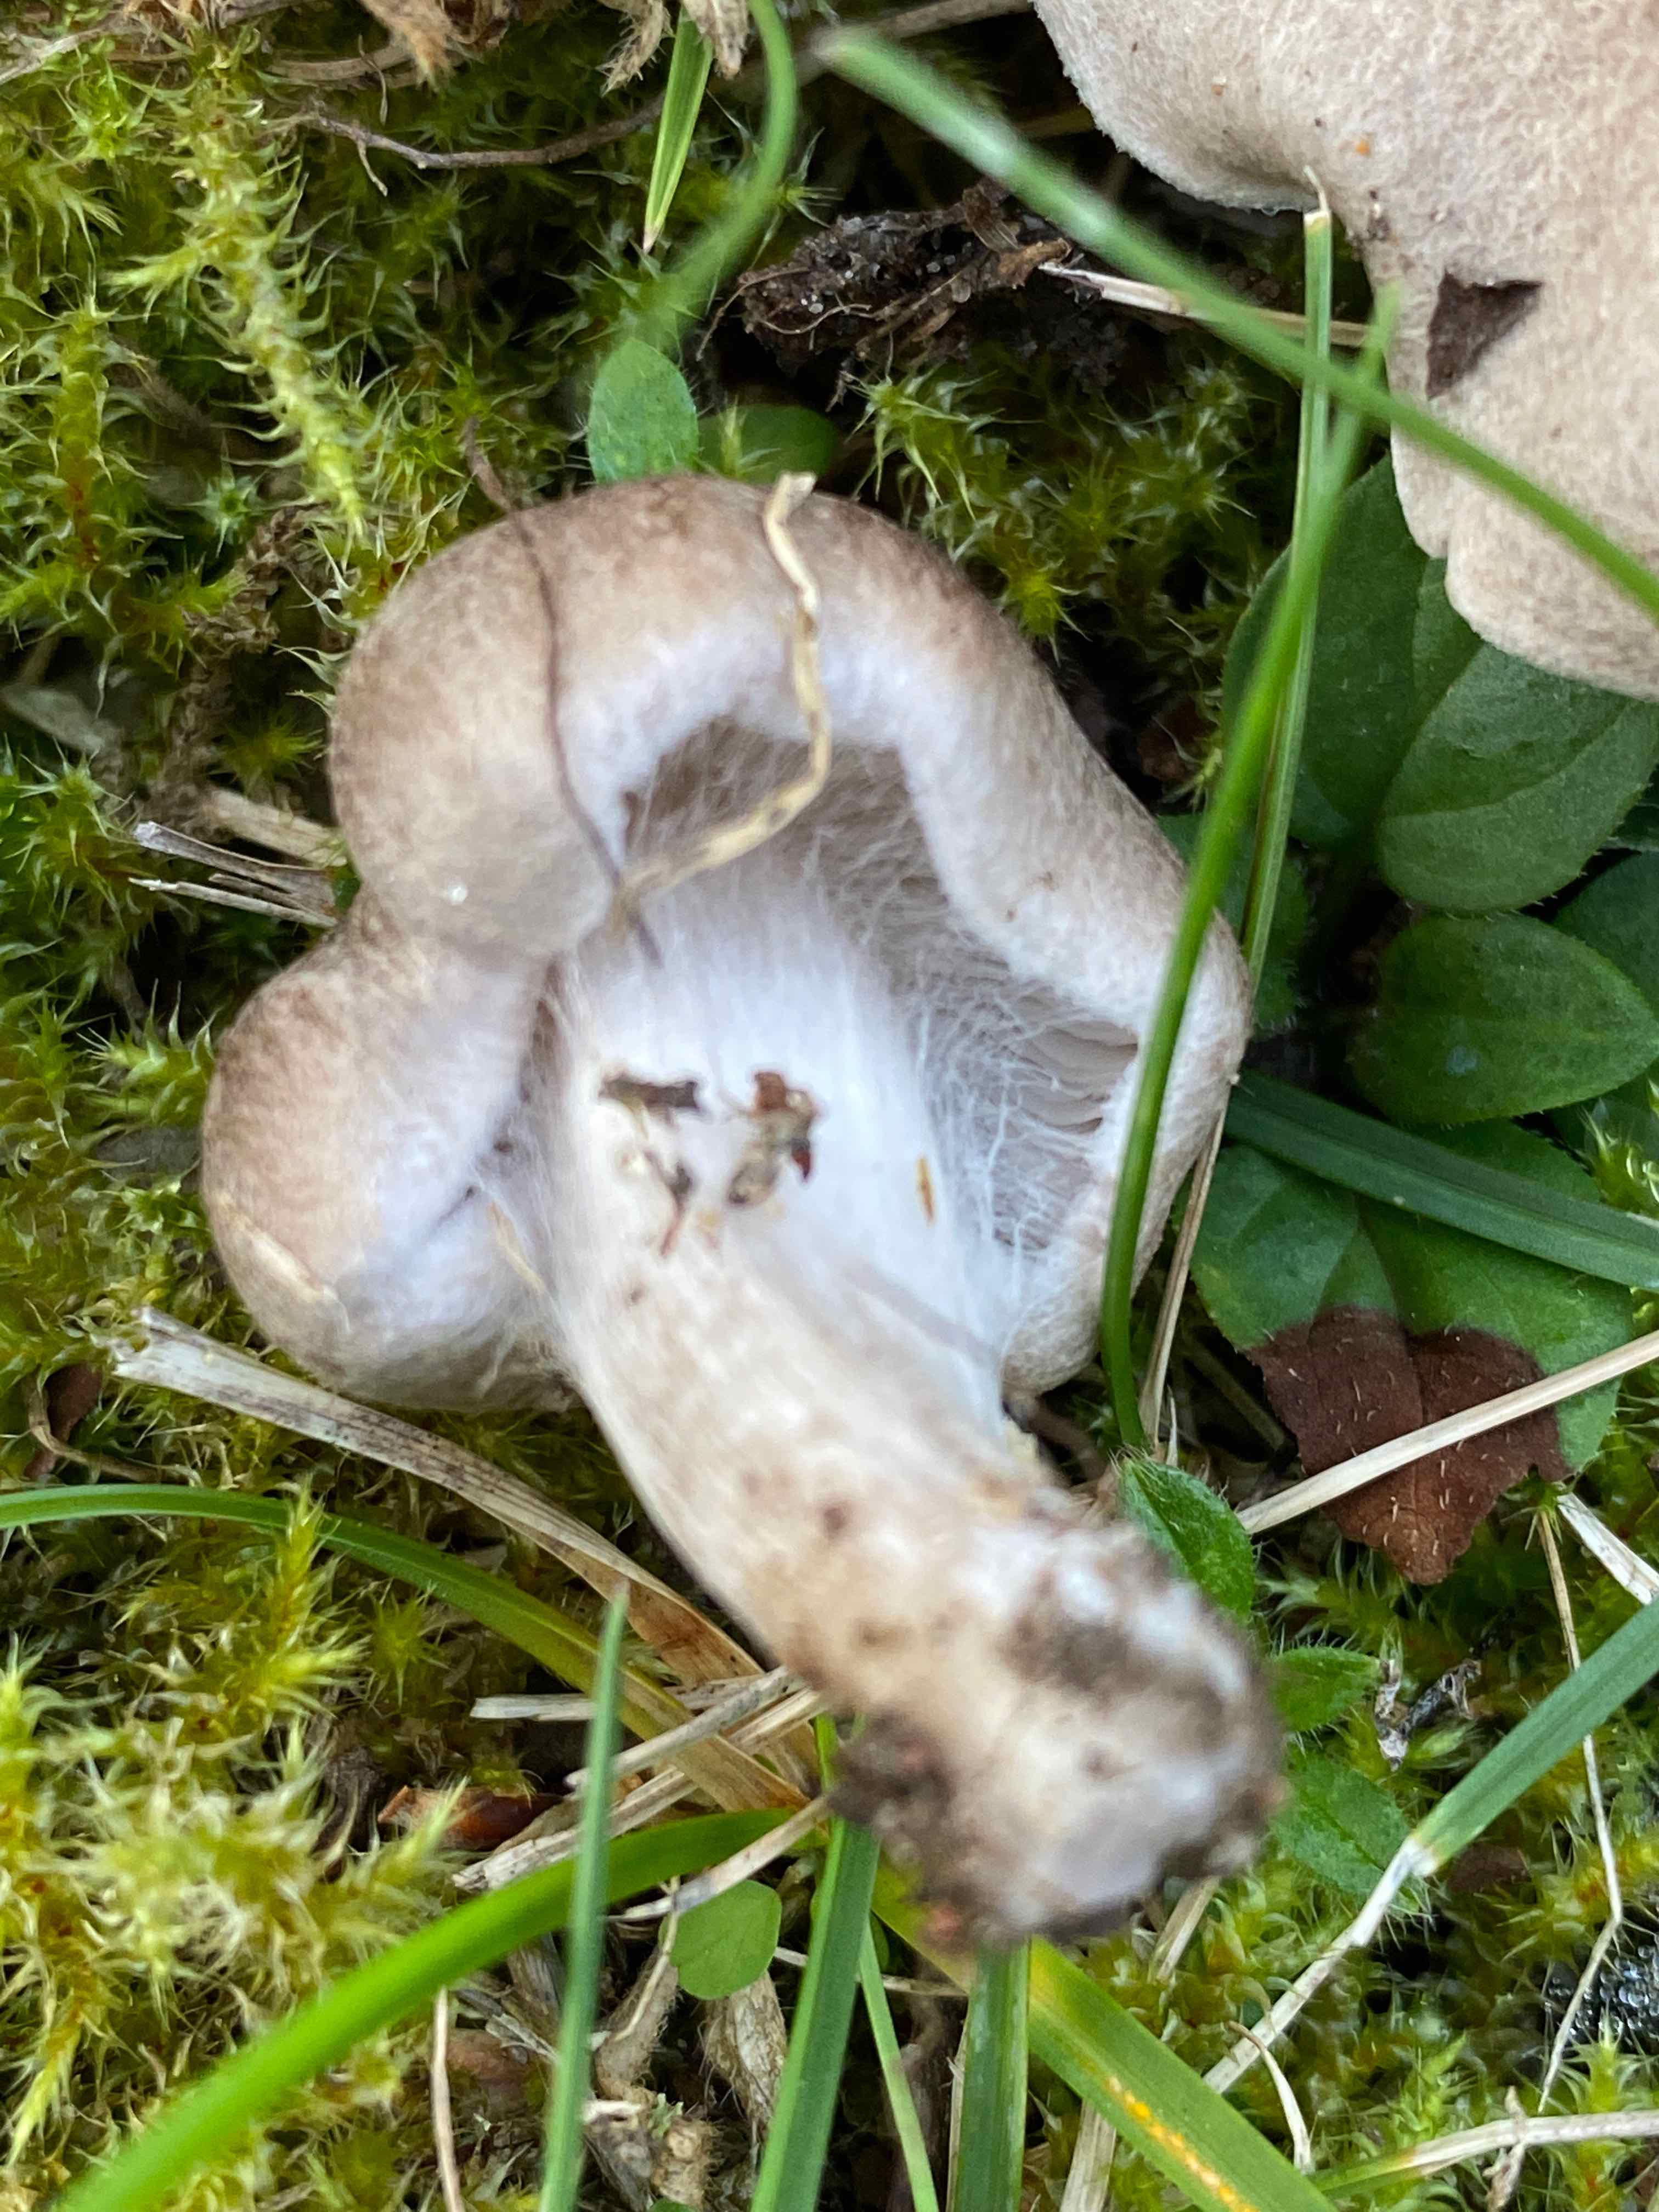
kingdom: Fungi
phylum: Basidiomycota
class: Agaricomycetes
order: Agaricales
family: Tricholomataceae
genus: Tricholoma
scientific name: Tricholoma argyraceum
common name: slør-ridderhat
